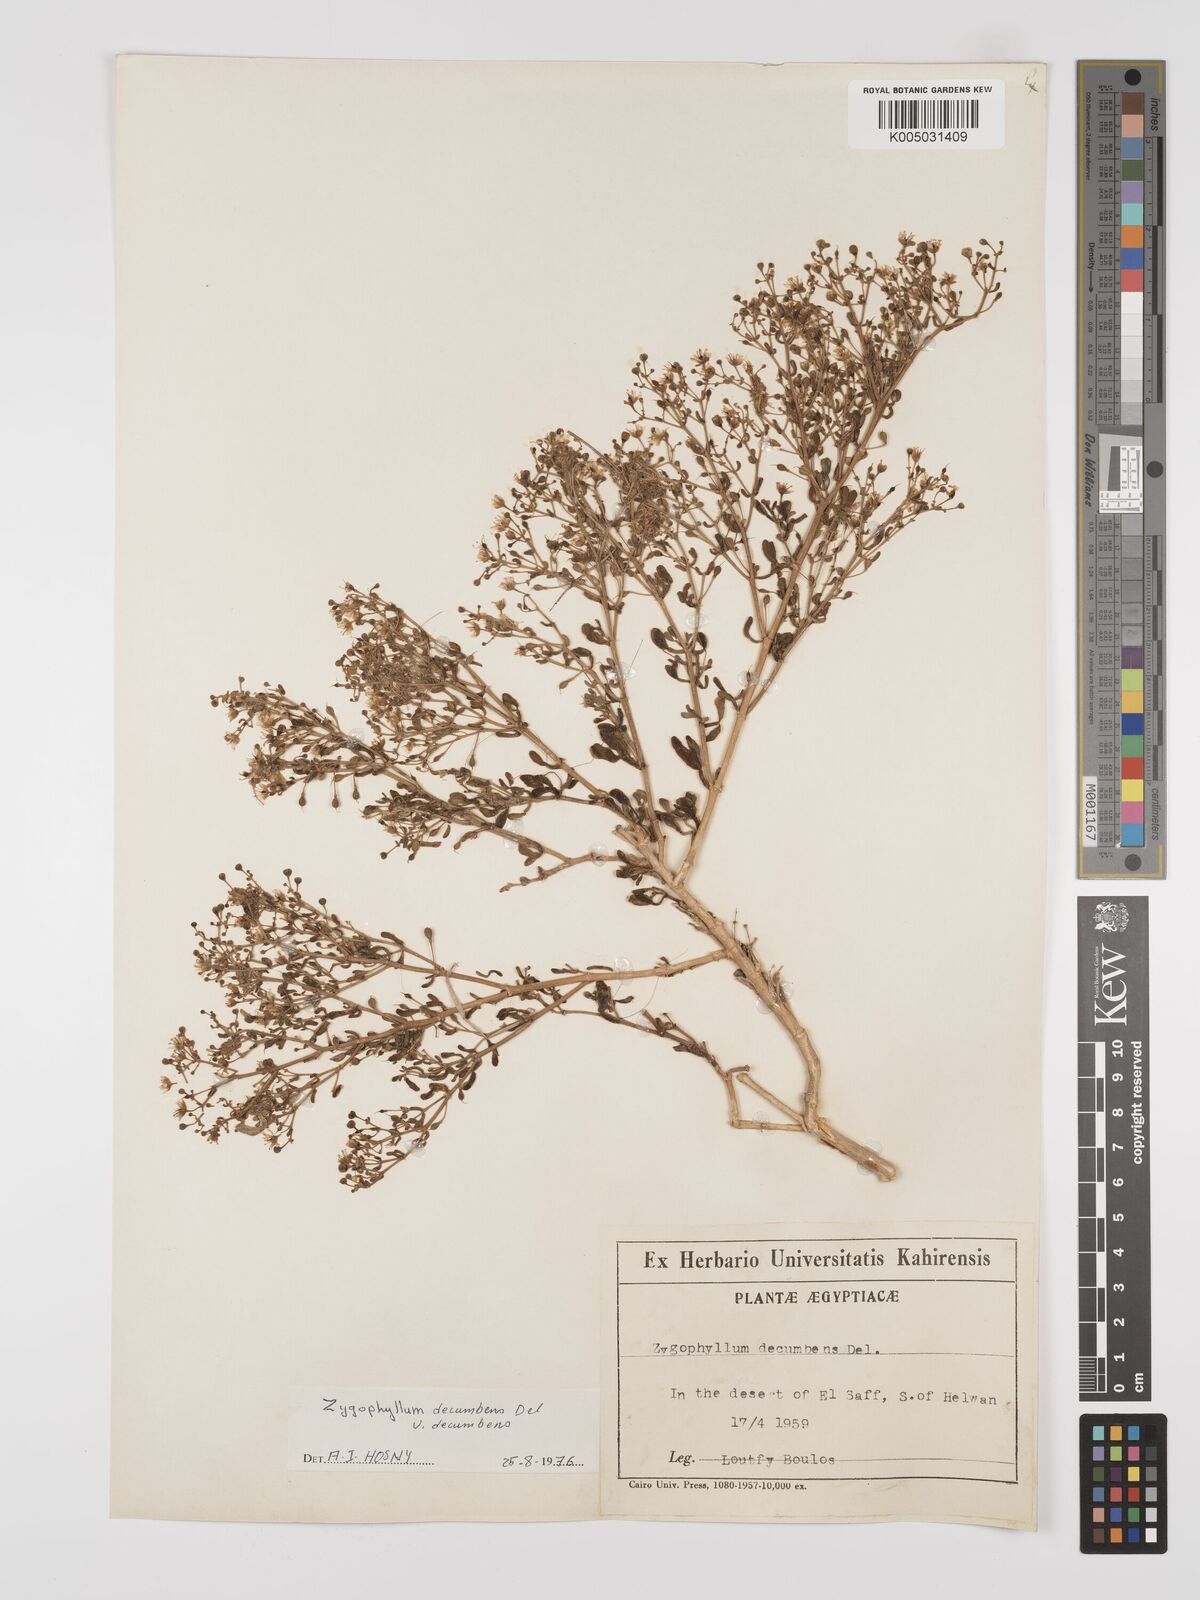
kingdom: Plantae
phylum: Tracheophyta
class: Magnoliopsida
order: Zygophyllales
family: Zygophyllaceae
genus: Tetraena
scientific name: Tetraena decumbens
